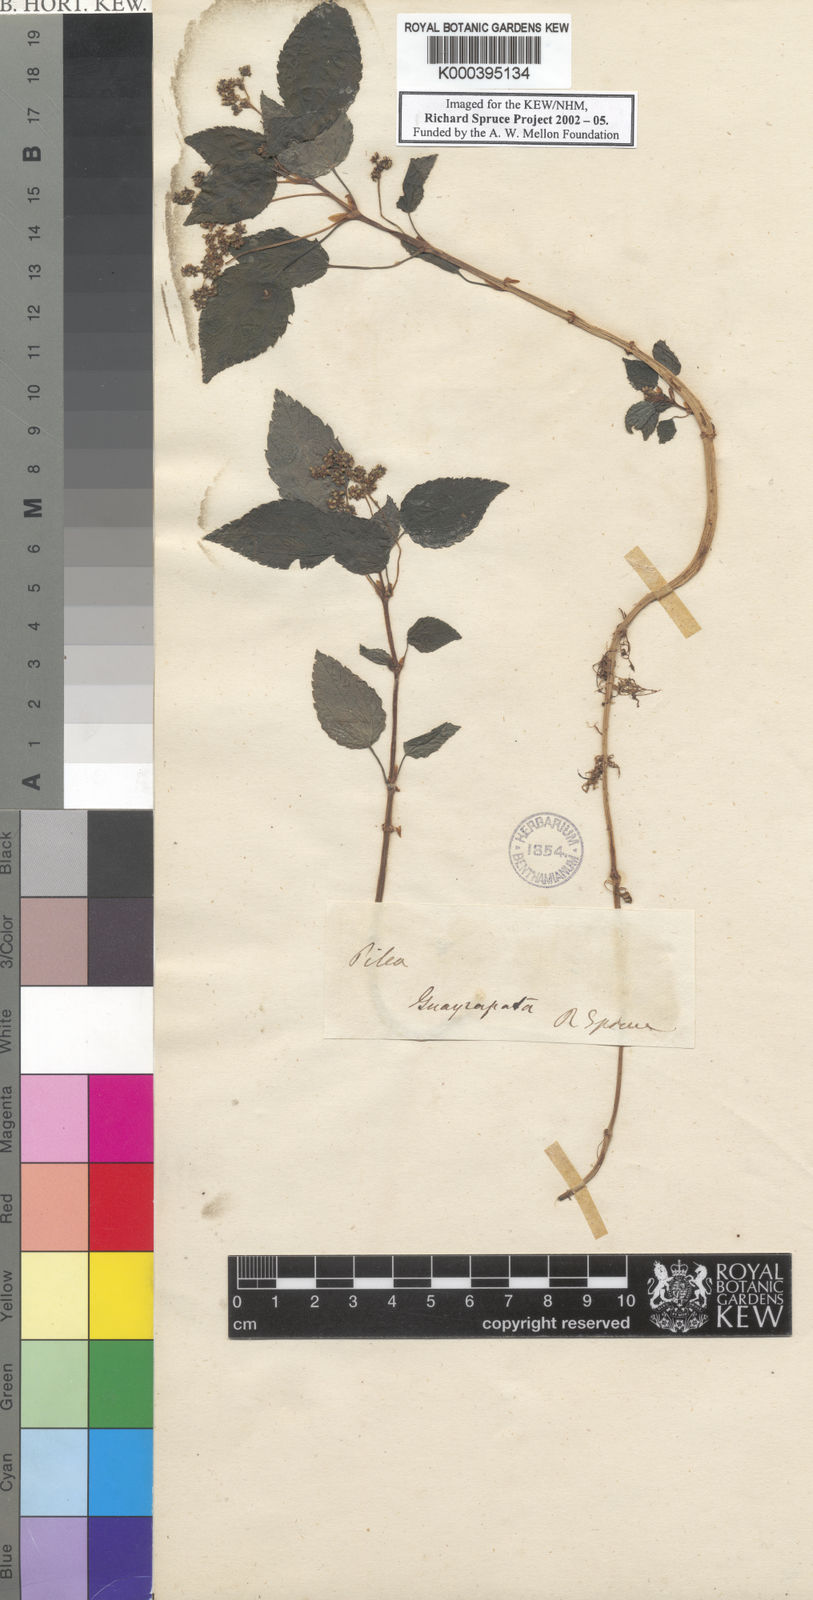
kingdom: Plantae
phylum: Tracheophyta
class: Magnoliopsida
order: Rosales
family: Urticaceae
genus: Pilea
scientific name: Pilea jamesoniana
